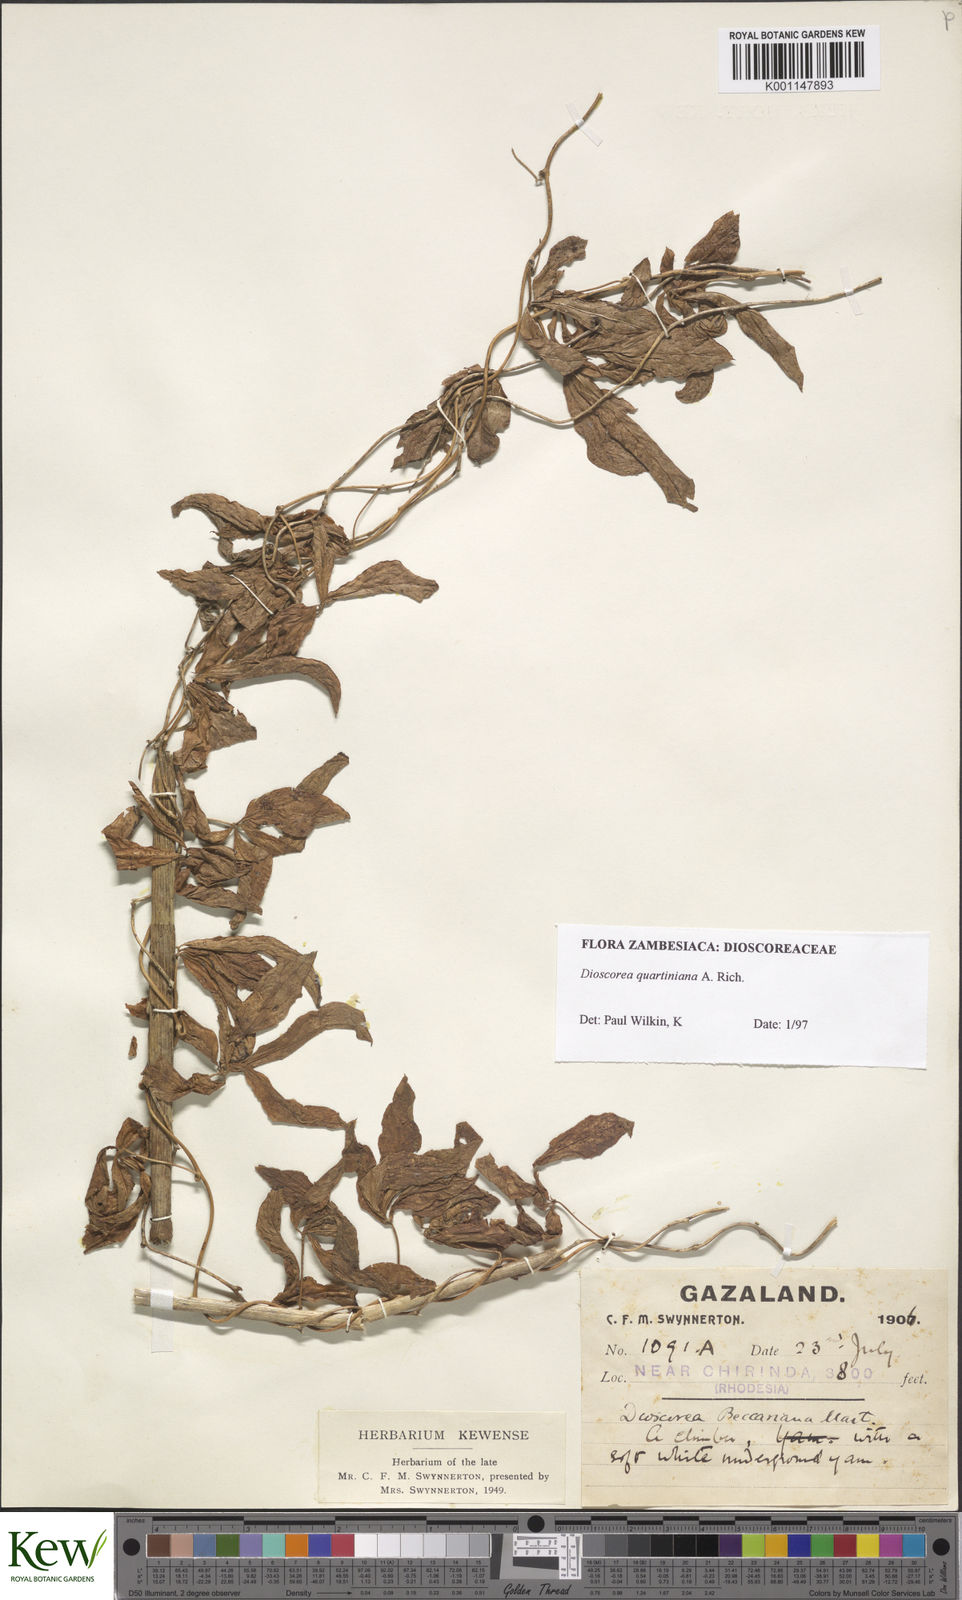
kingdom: Plantae
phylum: Tracheophyta
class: Liliopsida
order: Dioscoreales
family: Dioscoreaceae
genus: Dioscorea
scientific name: Dioscorea quartiniana
